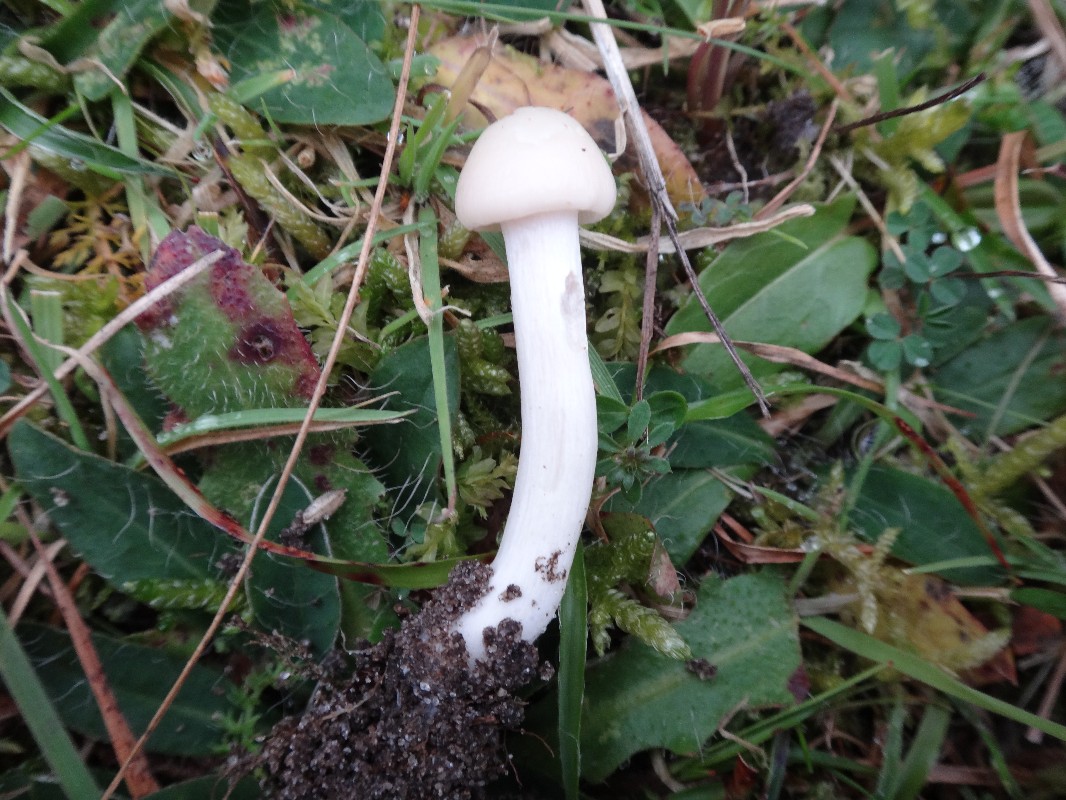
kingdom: Fungi
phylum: Basidiomycota
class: Agaricomycetes
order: Agaricales
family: Hygrophoraceae
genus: Cuphophyllus
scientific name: Cuphophyllus virgineus
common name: snehvid vokshat
